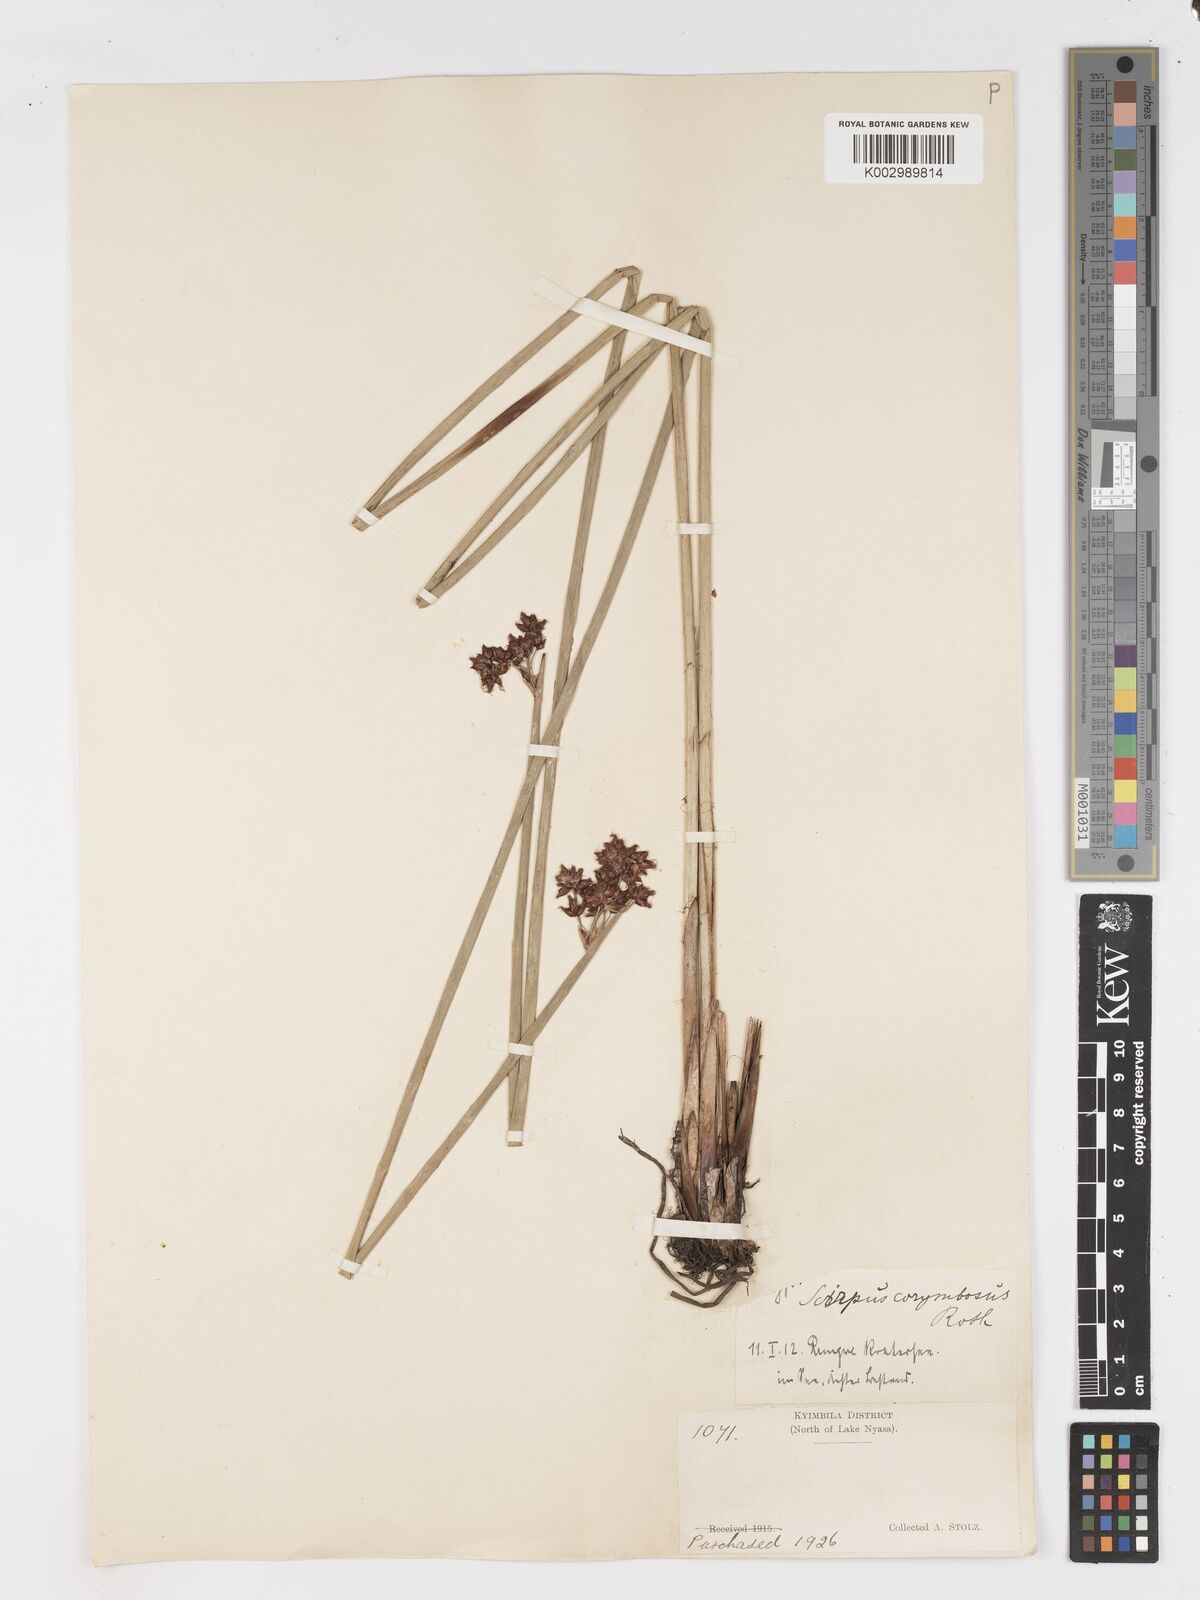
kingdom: Plantae
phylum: Tracheophyta
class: Liliopsida
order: Poales
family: Cyperaceae
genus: Schoenoplectiella
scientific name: Schoenoplectiella brachyceras
